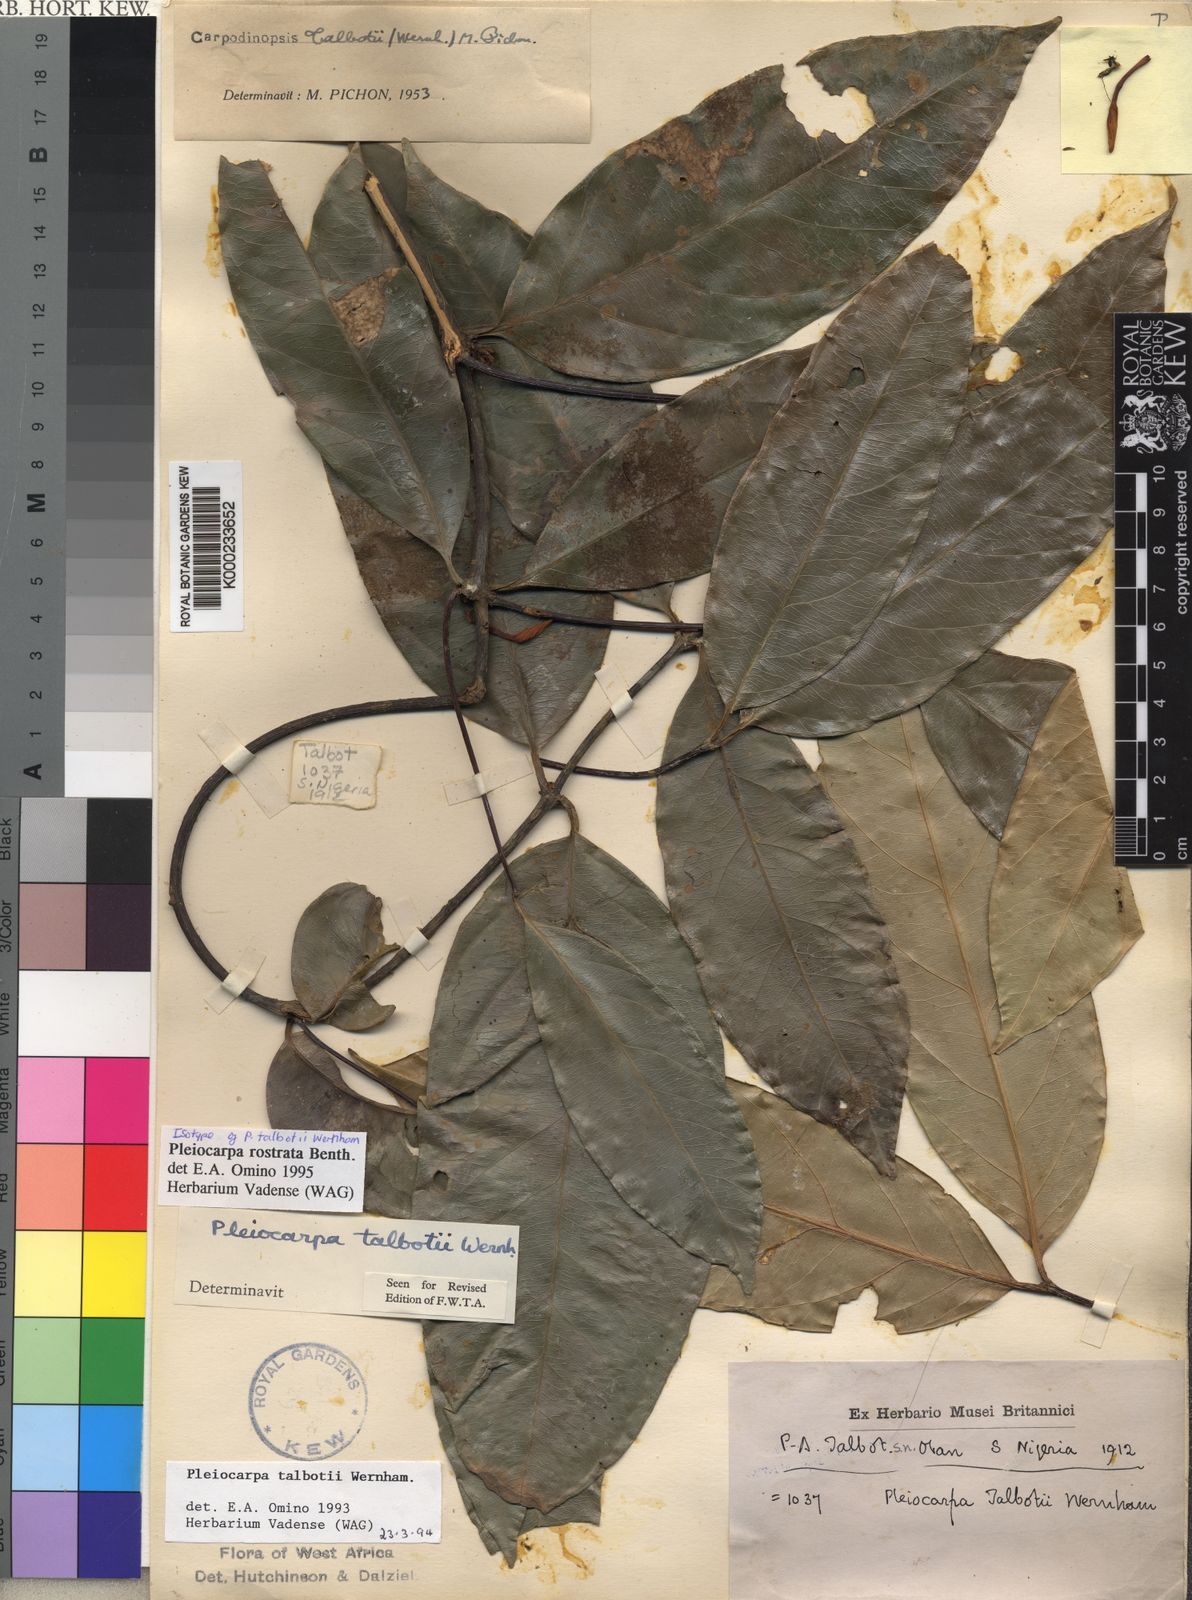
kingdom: Plantae
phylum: Tracheophyta
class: Magnoliopsida
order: Gentianales
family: Apocynaceae
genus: Pleiocarpa
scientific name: Pleiocarpa rostrata
